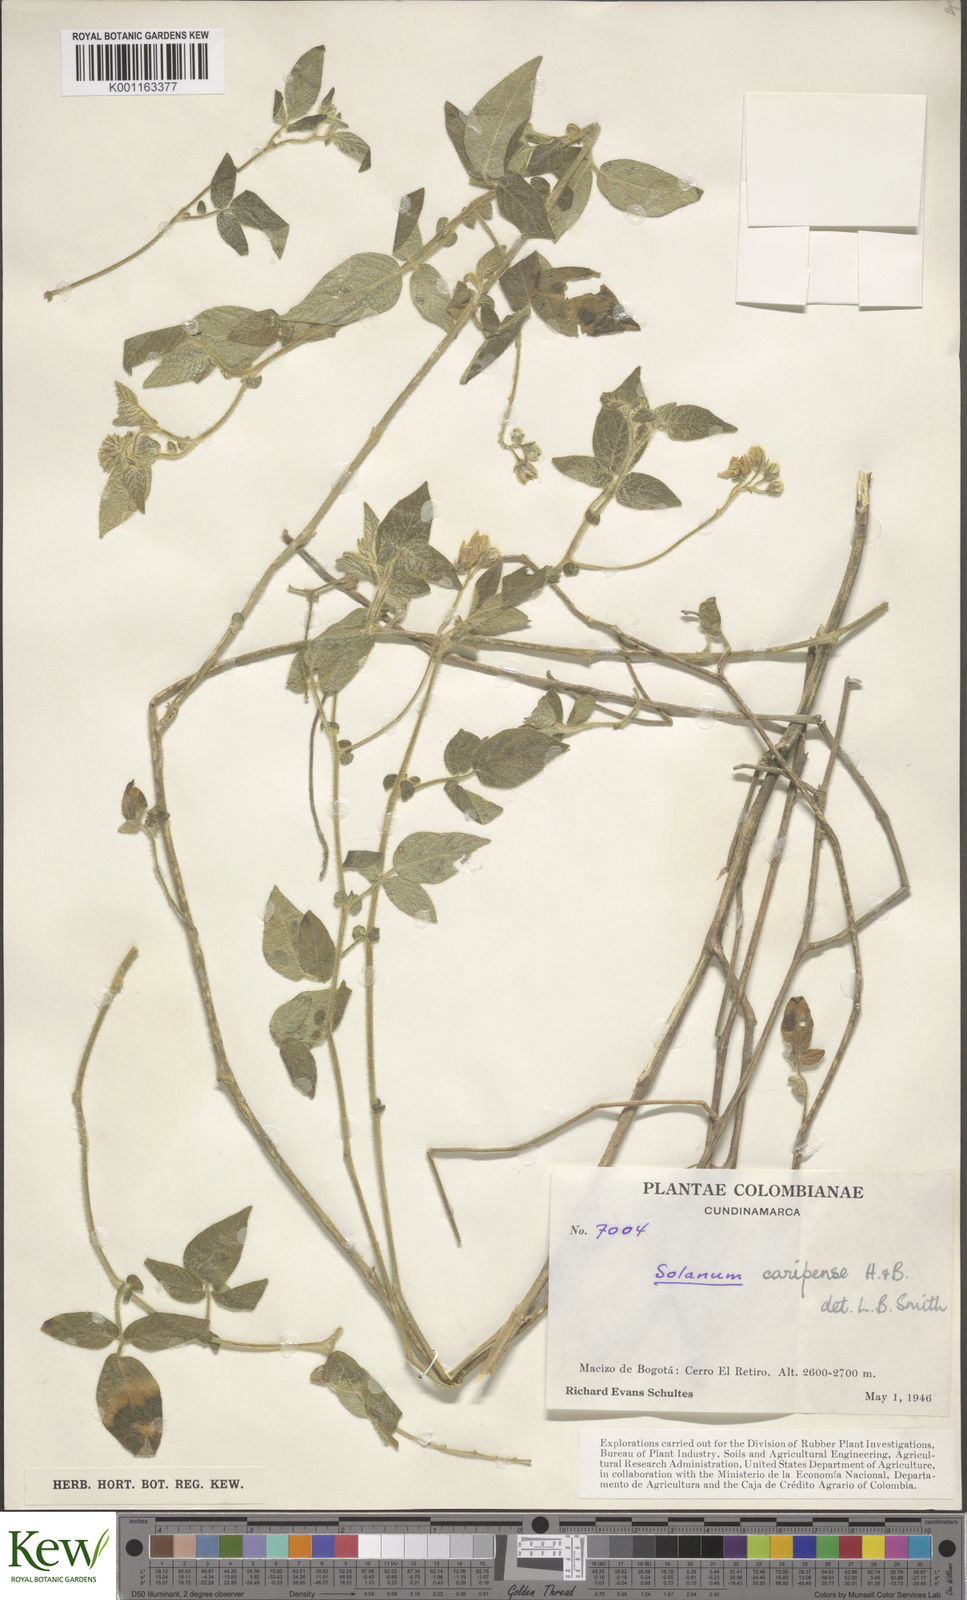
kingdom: Plantae
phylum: Tracheophyta
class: Magnoliopsida
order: Solanales
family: Solanaceae
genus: Solanum
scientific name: Solanum caripense
